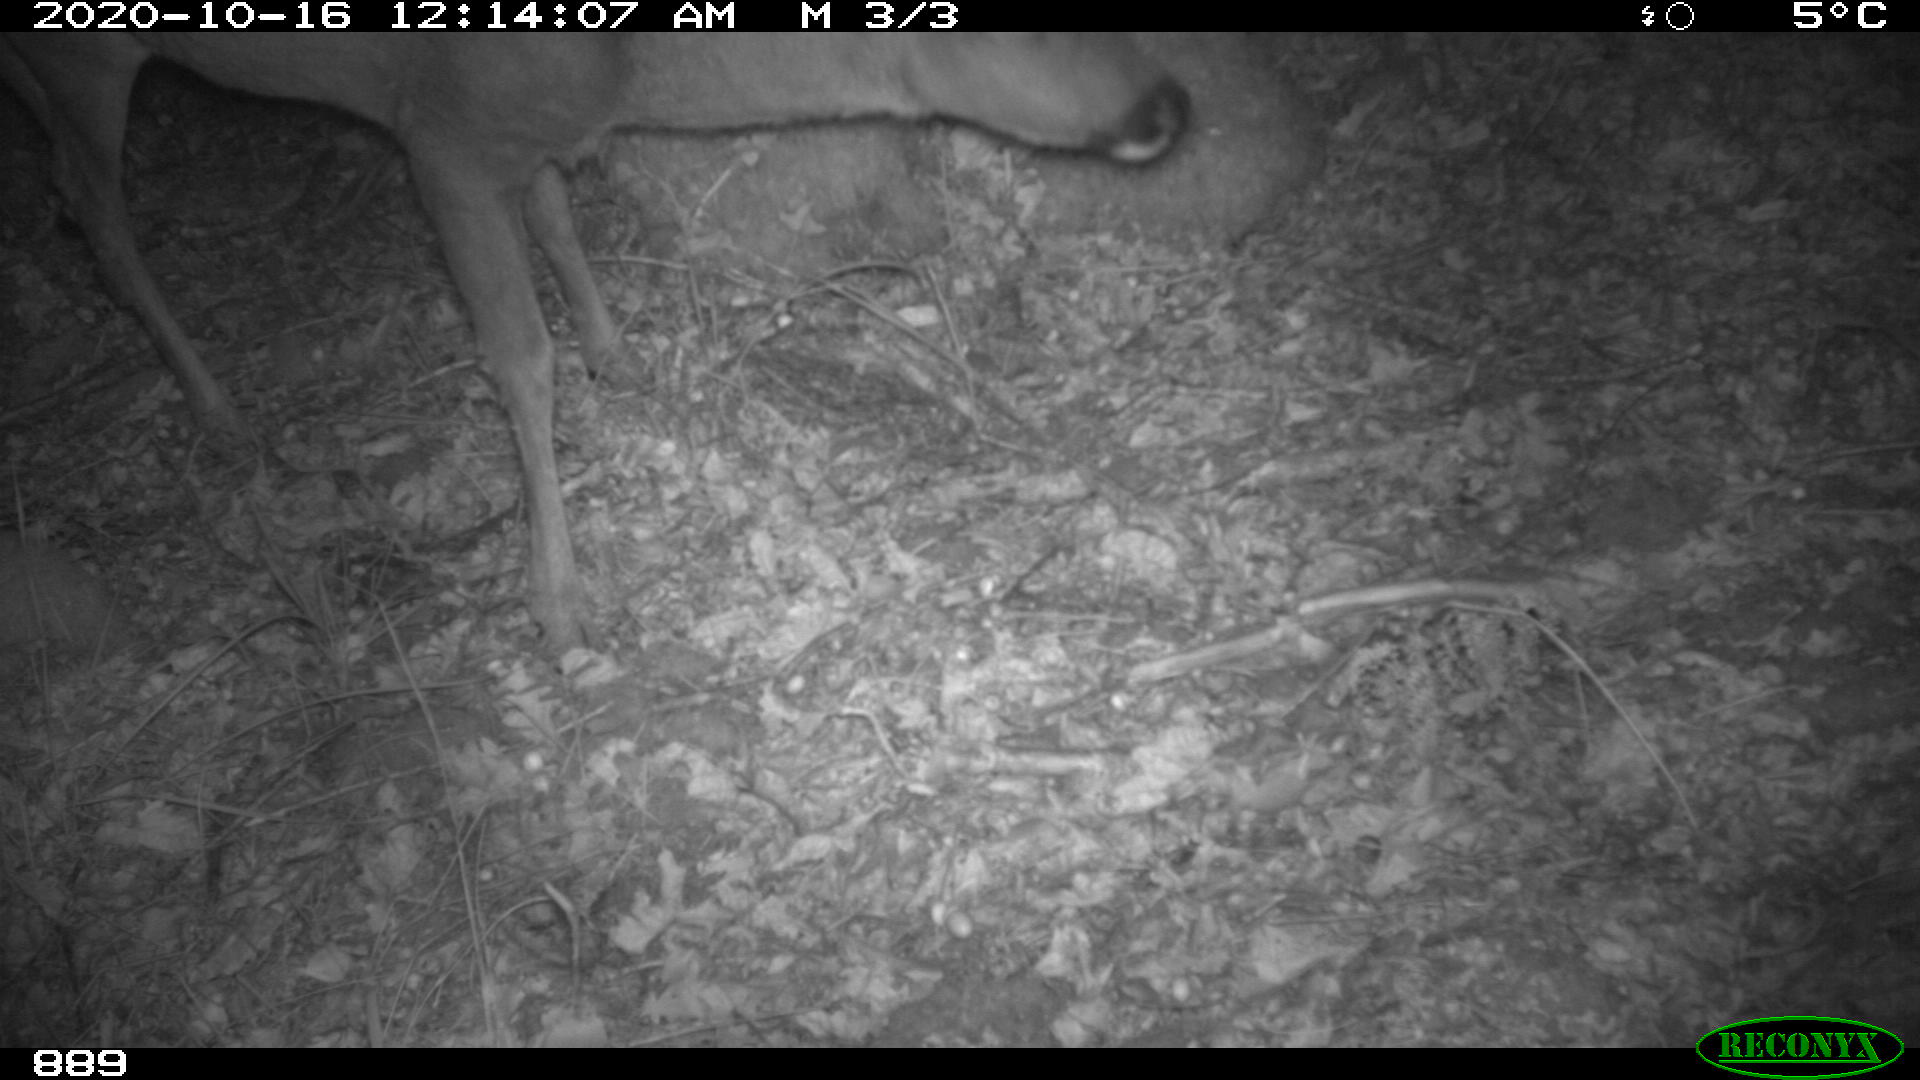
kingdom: Animalia
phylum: Chordata
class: Mammalia
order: Artiodactyla
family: Cervidae
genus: Capreolus
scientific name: Capreolus capreolus
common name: Western roe deer
